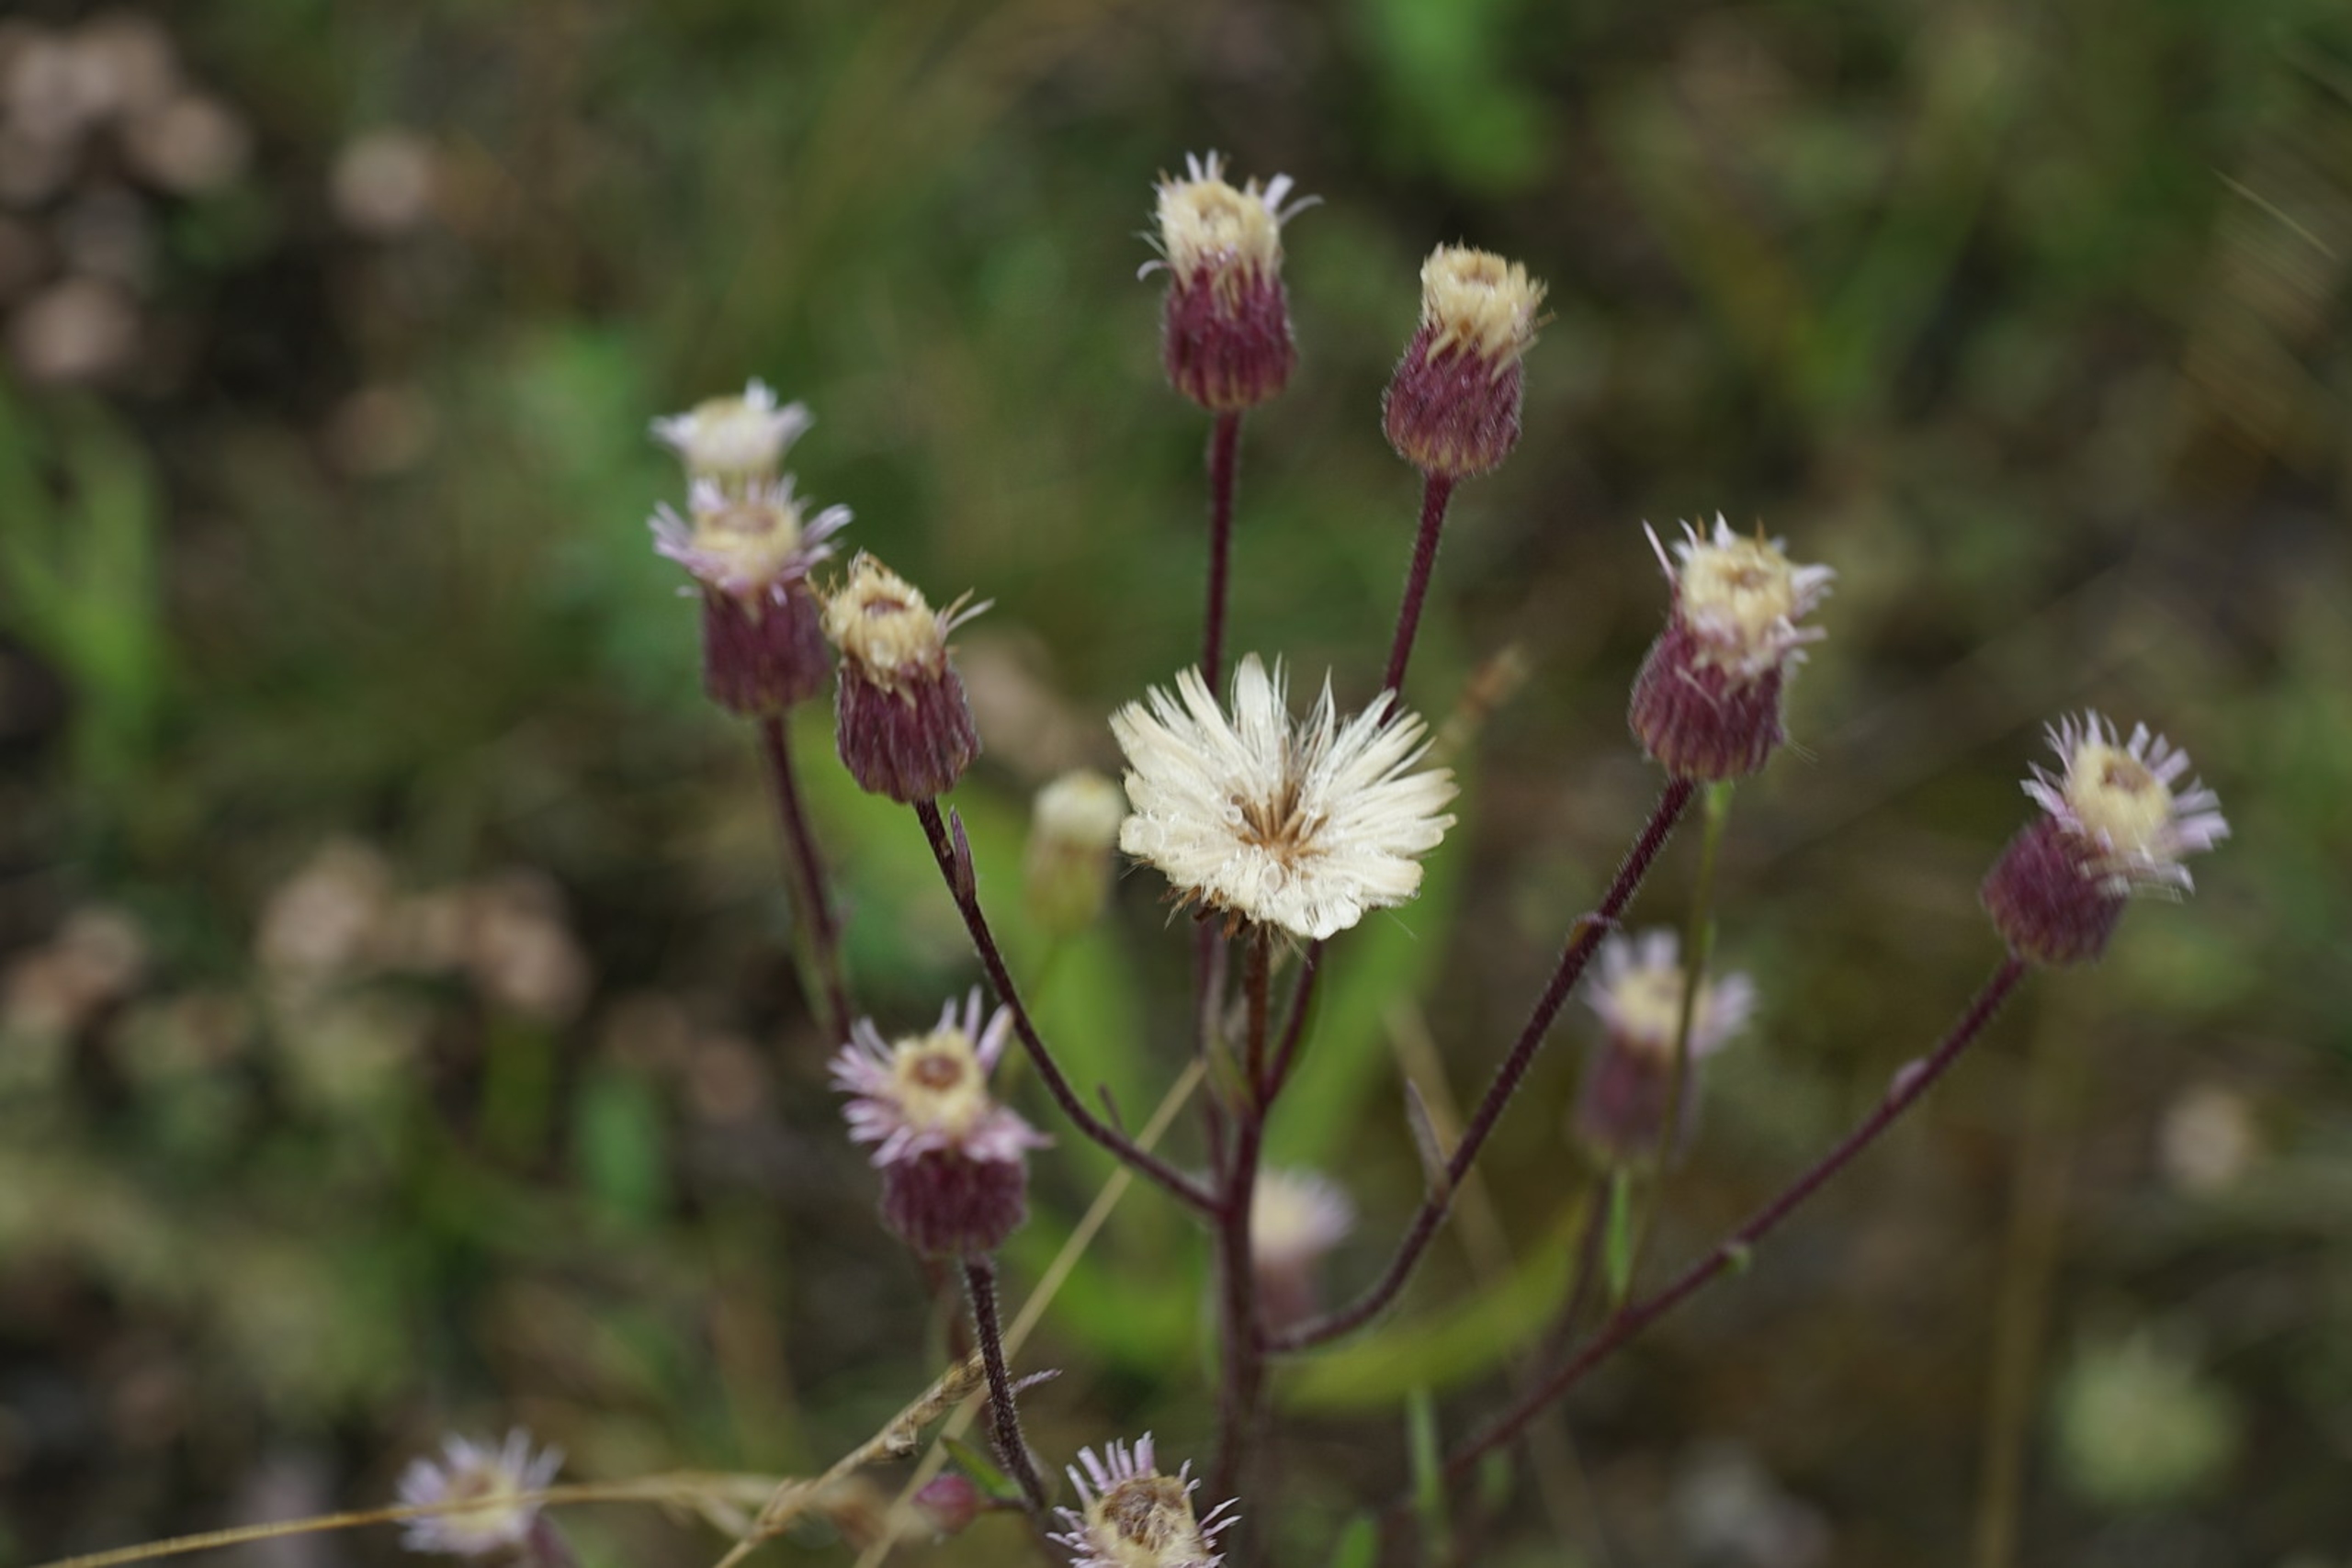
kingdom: Plantae
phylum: Tracheophyta
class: Magnoliopsida
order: Asterales
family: Asteraceae
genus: Erigeron
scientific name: Erigeron acris
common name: Bitter bakkestjerne
